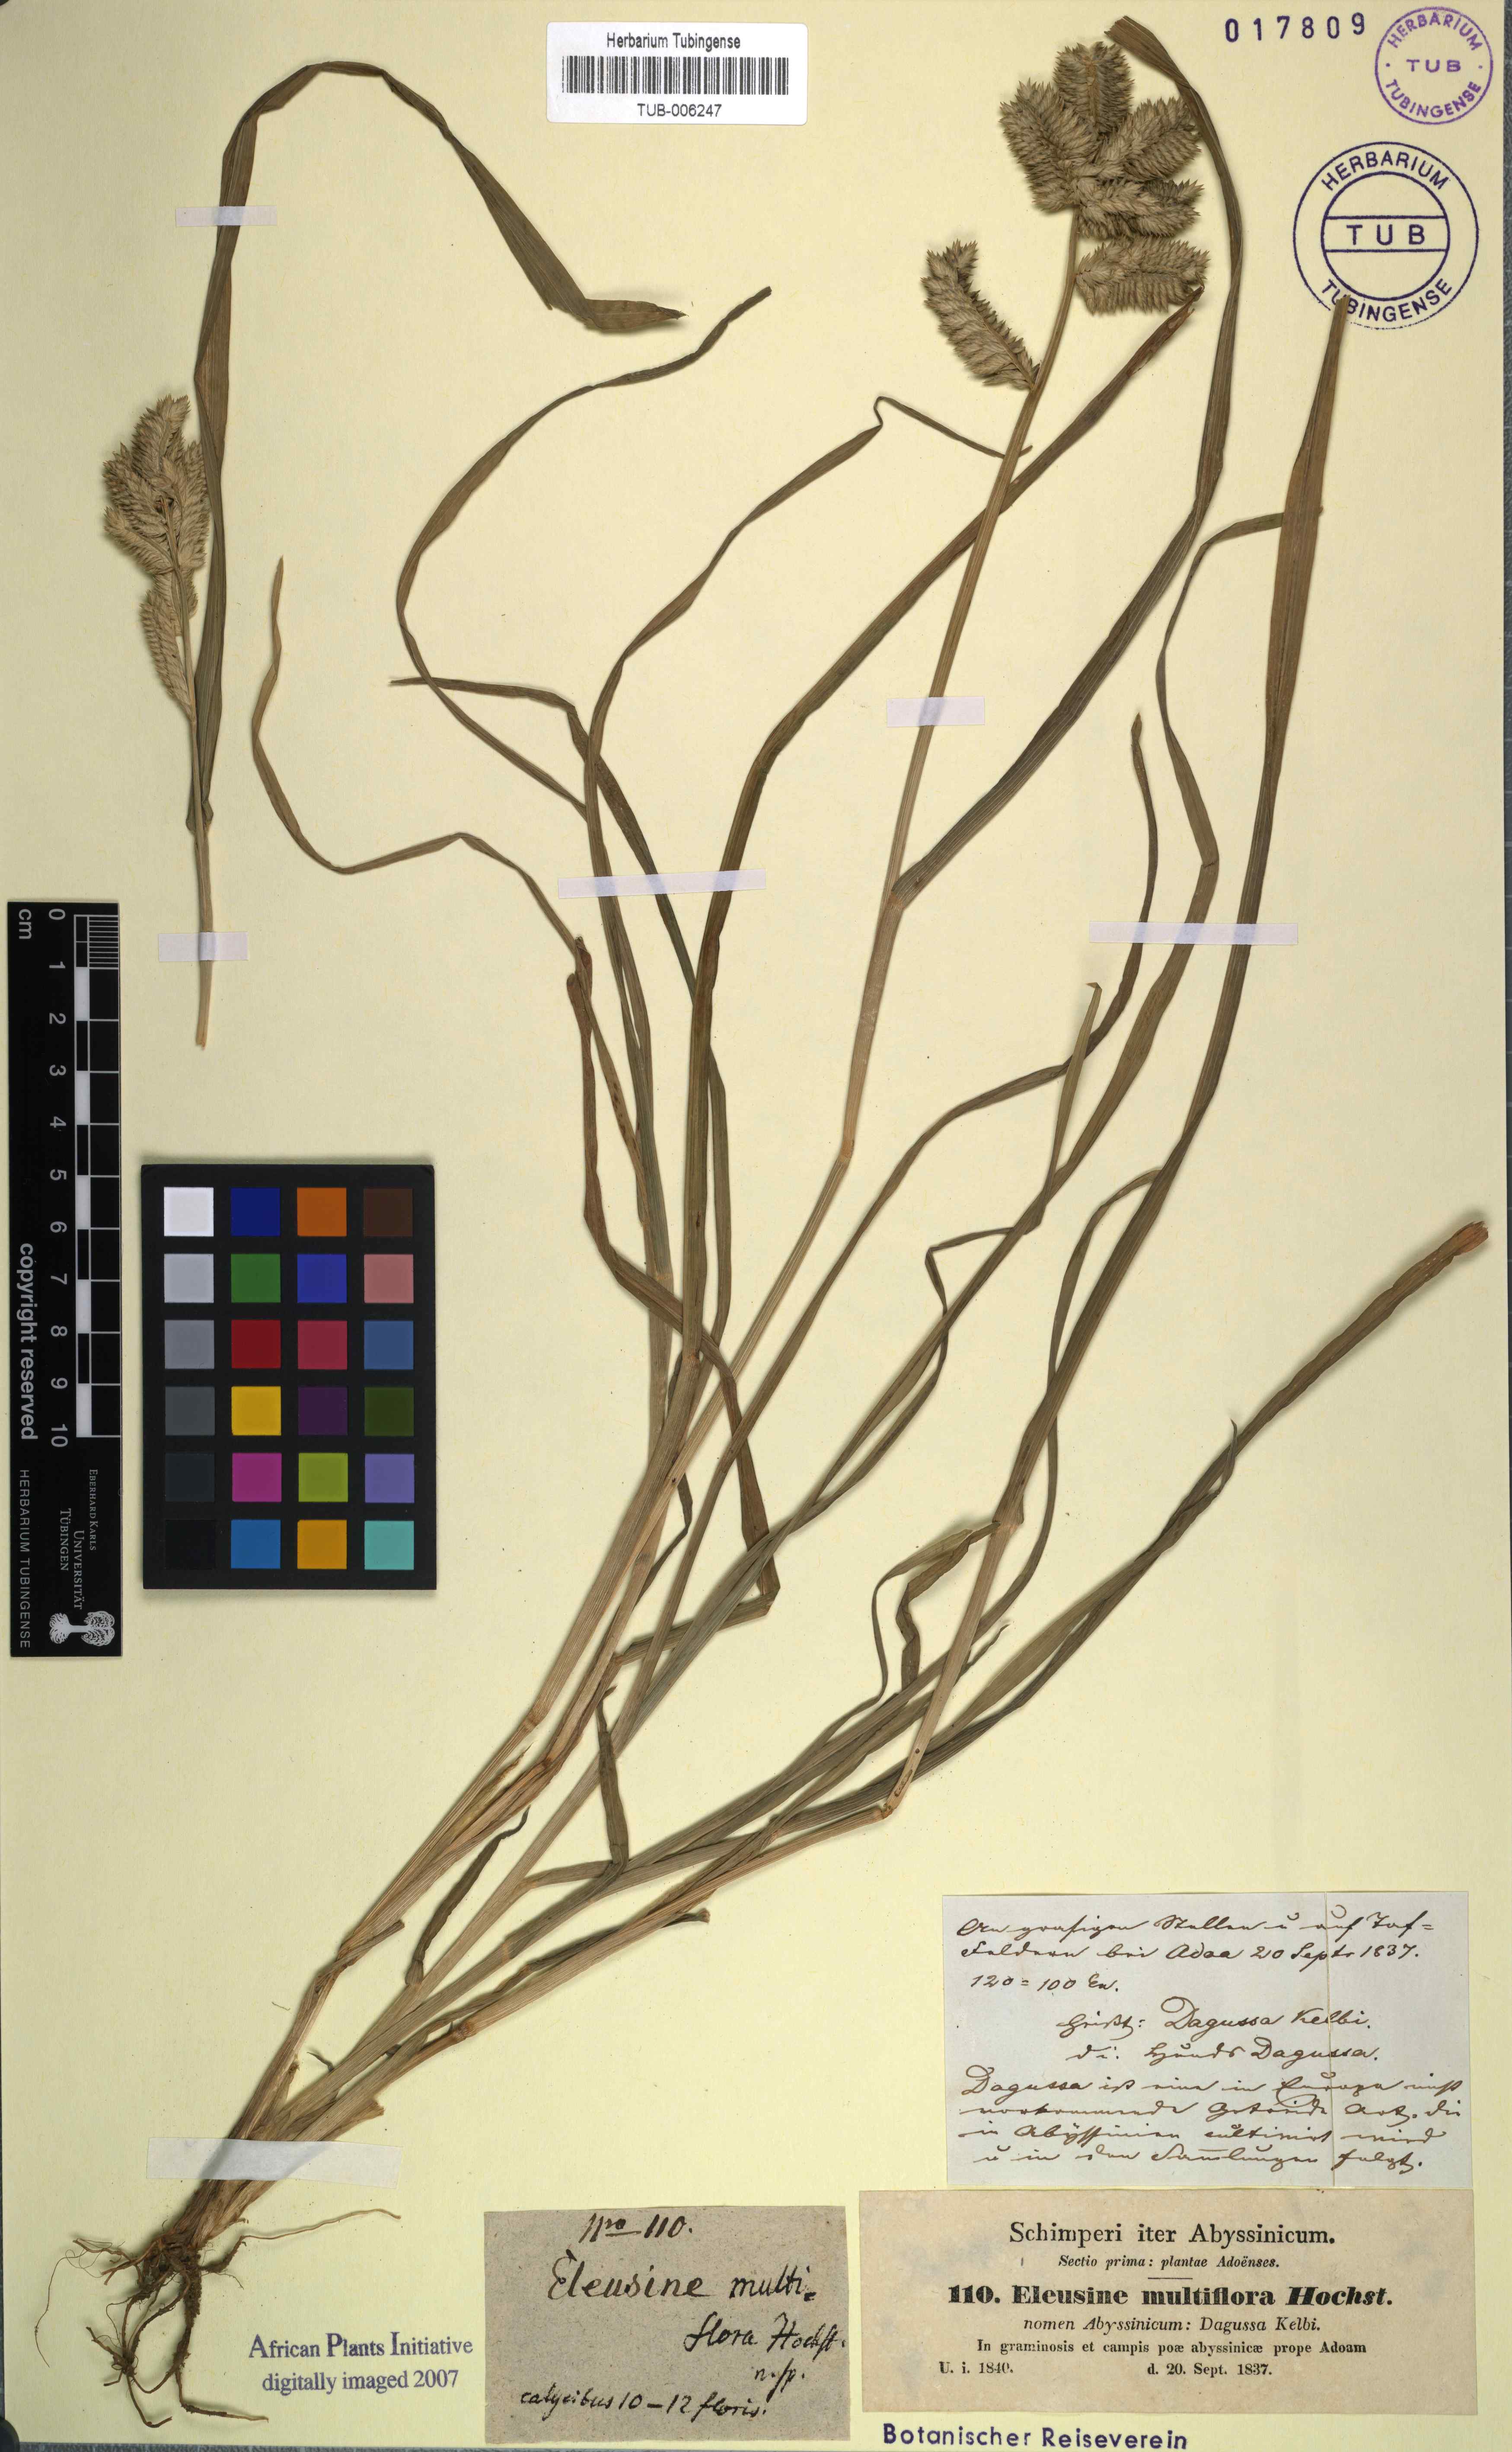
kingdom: Plantae
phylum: Tracheophyta
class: Liliopsida
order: Poales
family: Poaceae
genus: Eleusine
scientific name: Eleusine multiflora
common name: Fat-spiked yard-grass
